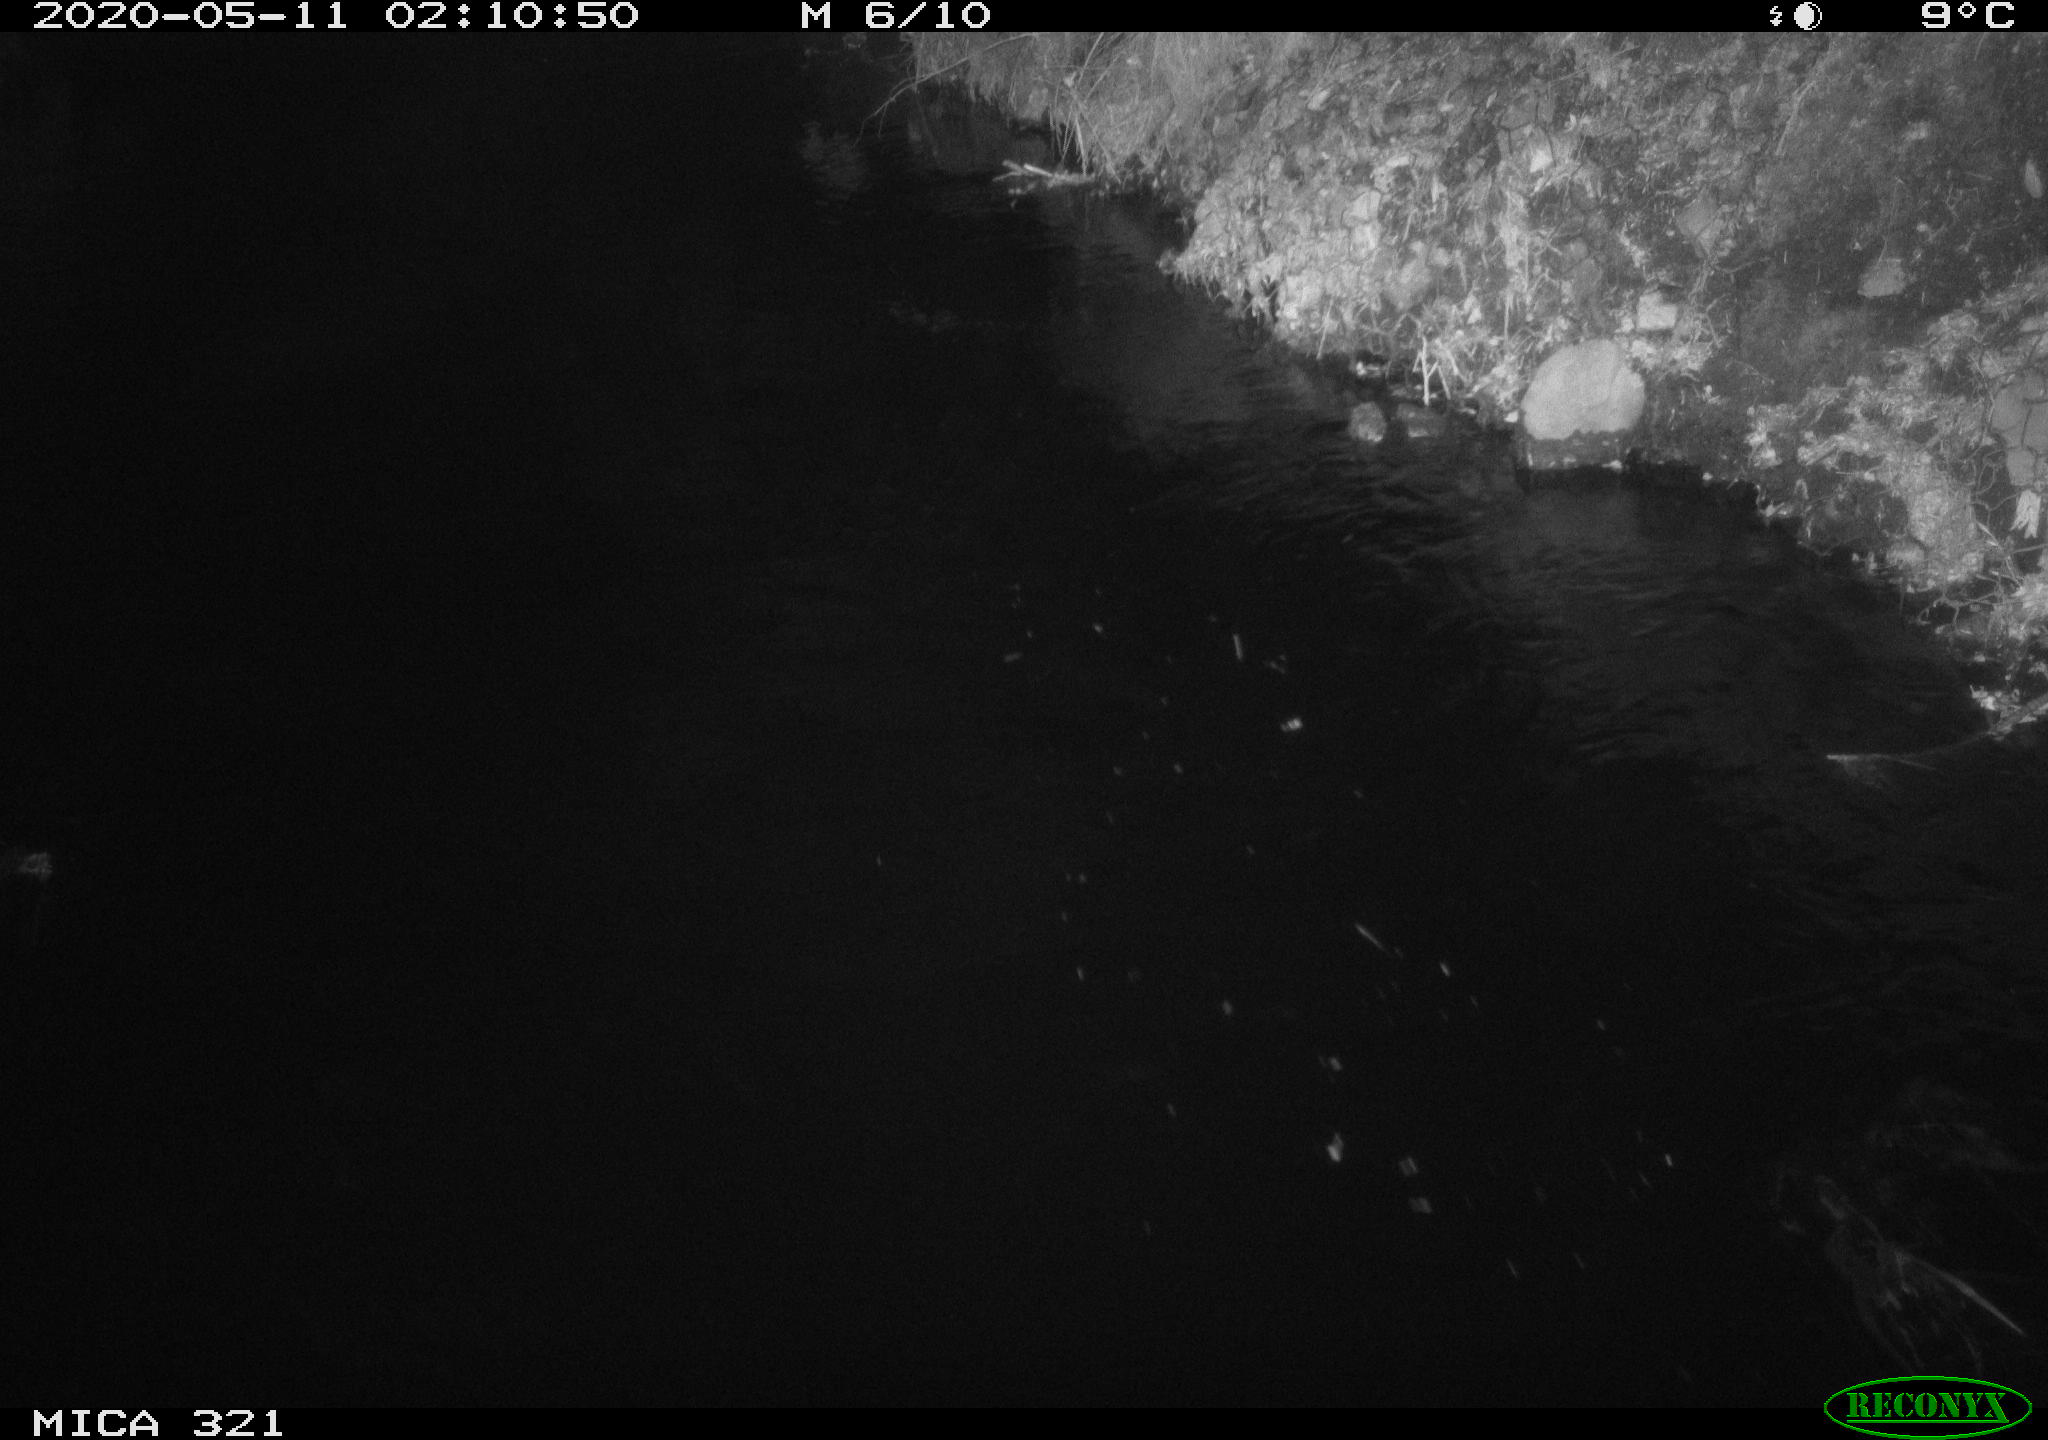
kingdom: Animalia
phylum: Chordata
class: Aves
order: Anseriformes
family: Anatidae
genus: Anas
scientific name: Anas platyrhynchos
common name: Mallard
